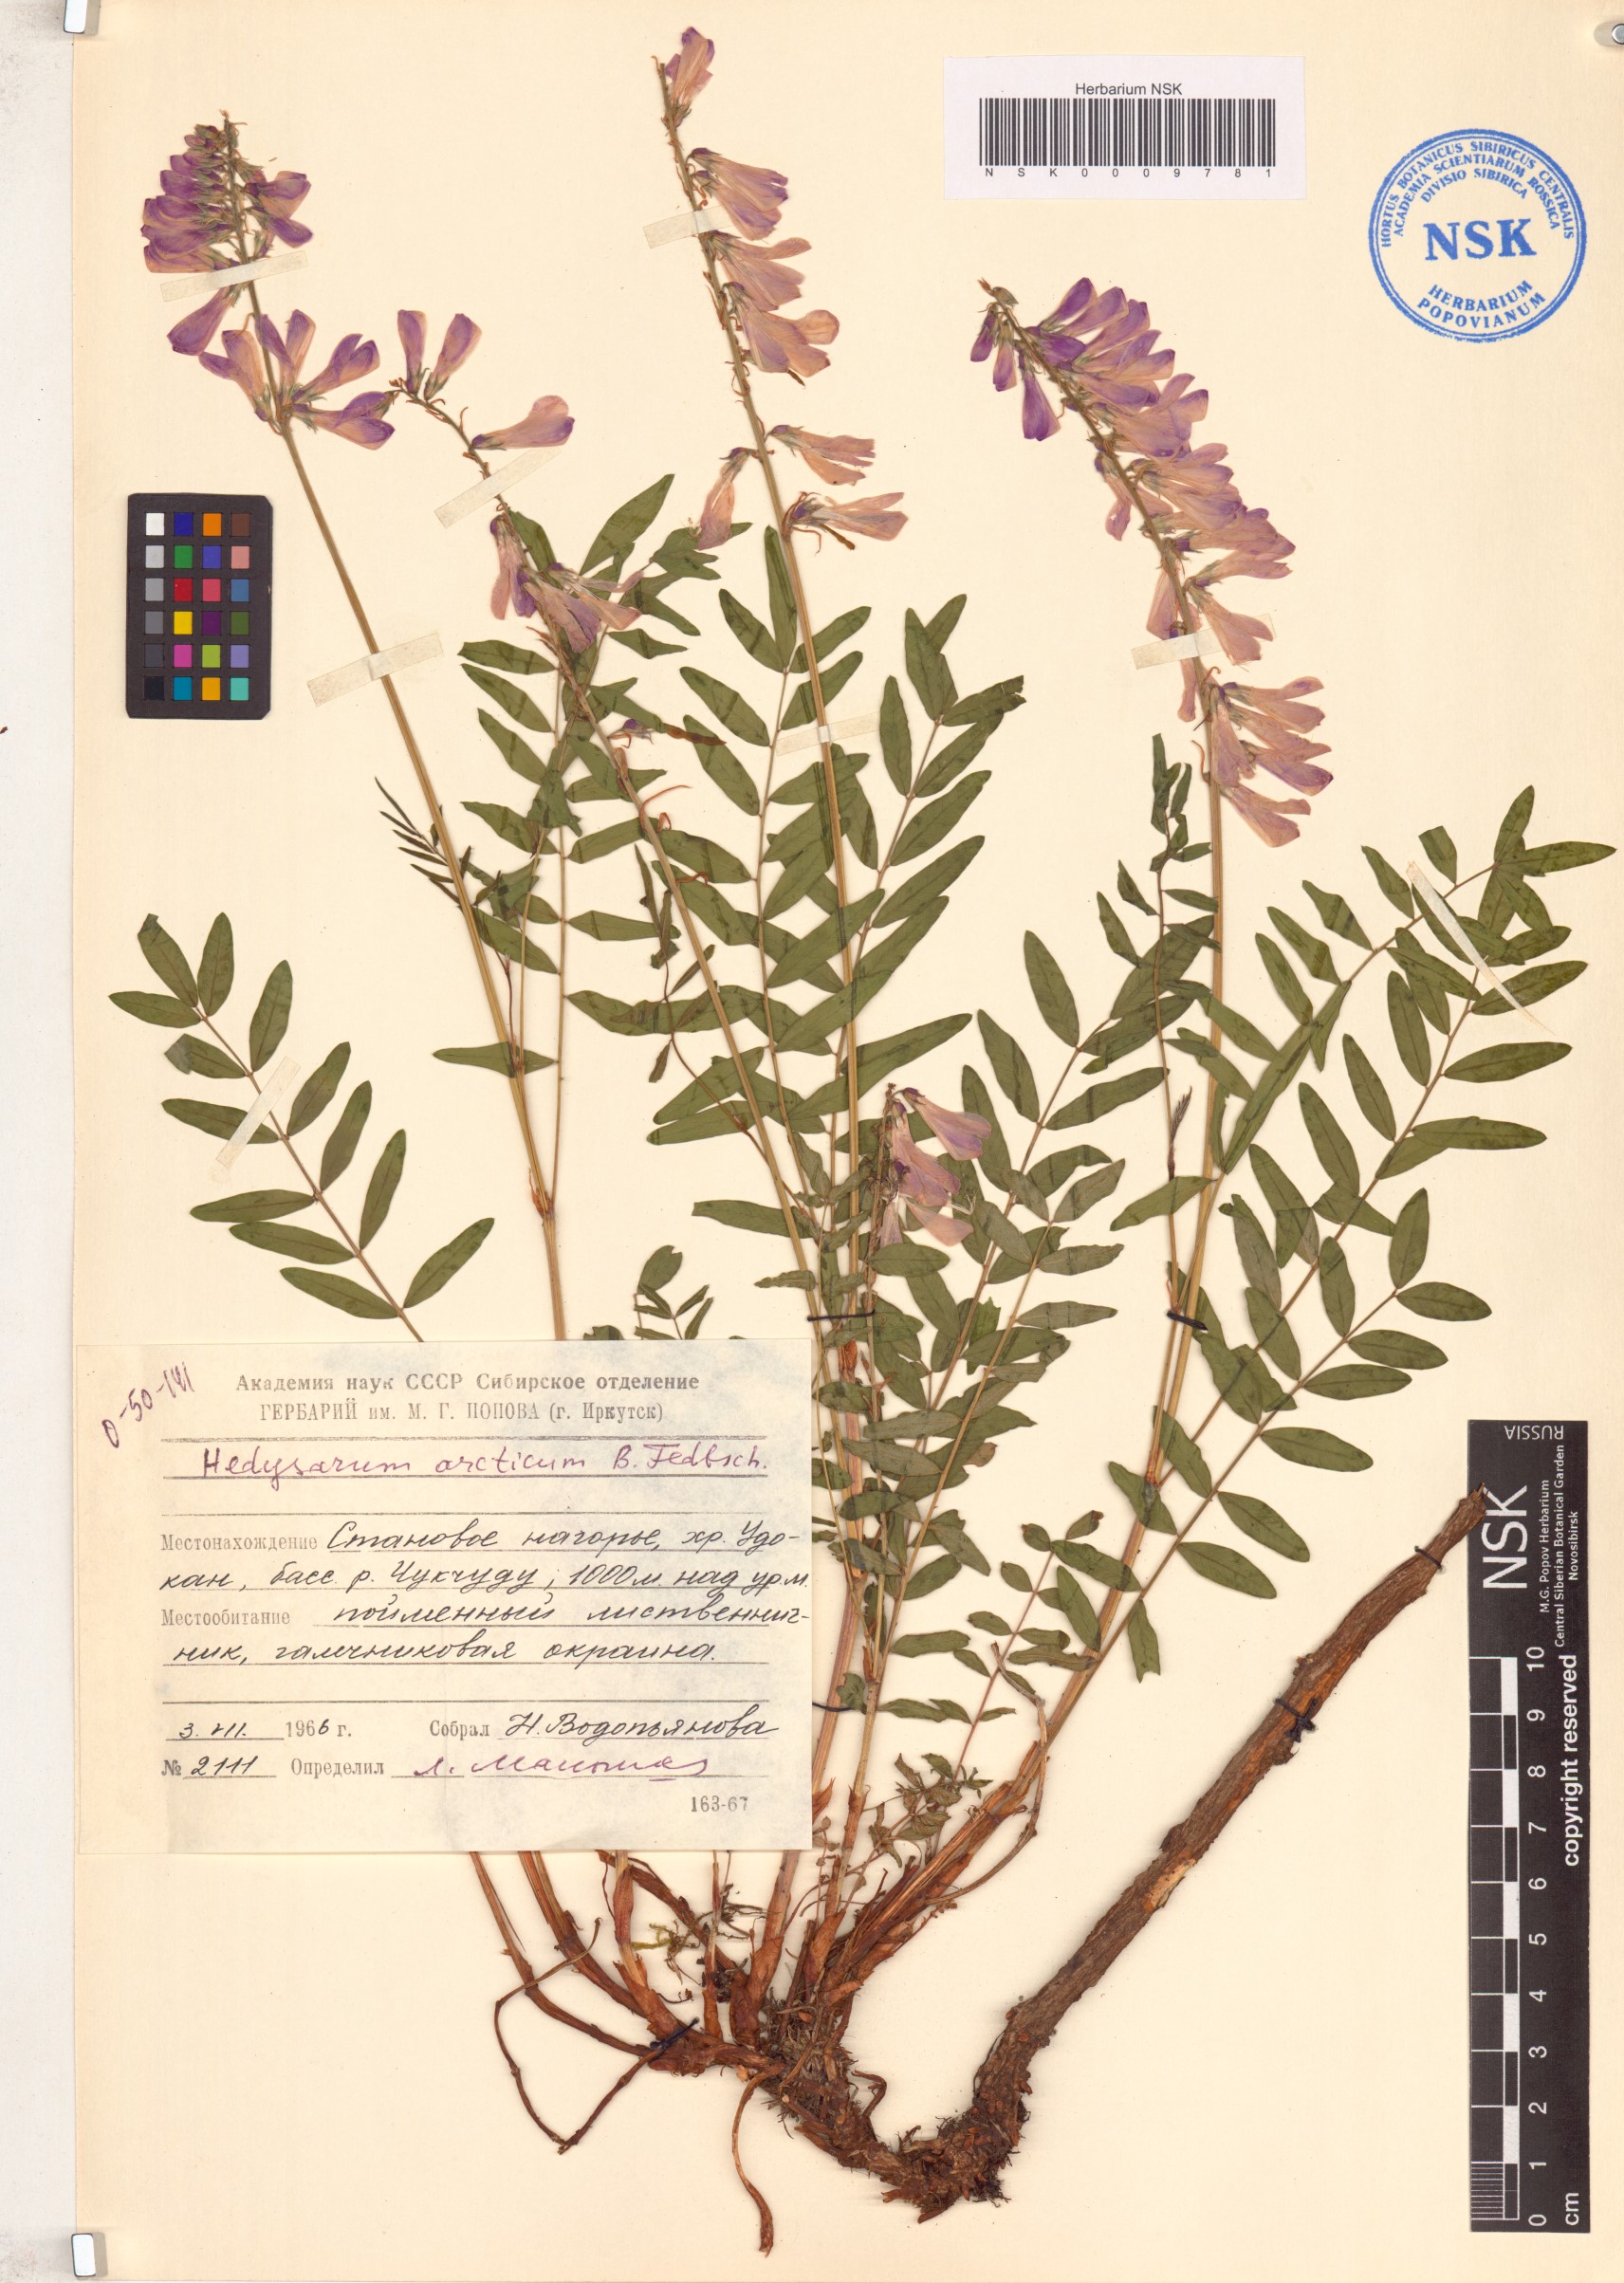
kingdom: Plantae
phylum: Tracheophyta
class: Magnoliopsida
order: Fabales
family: Fabaceae
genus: Hedysarum
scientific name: Hedysarum hedysaroides
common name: Alpine french-honeysuckle
